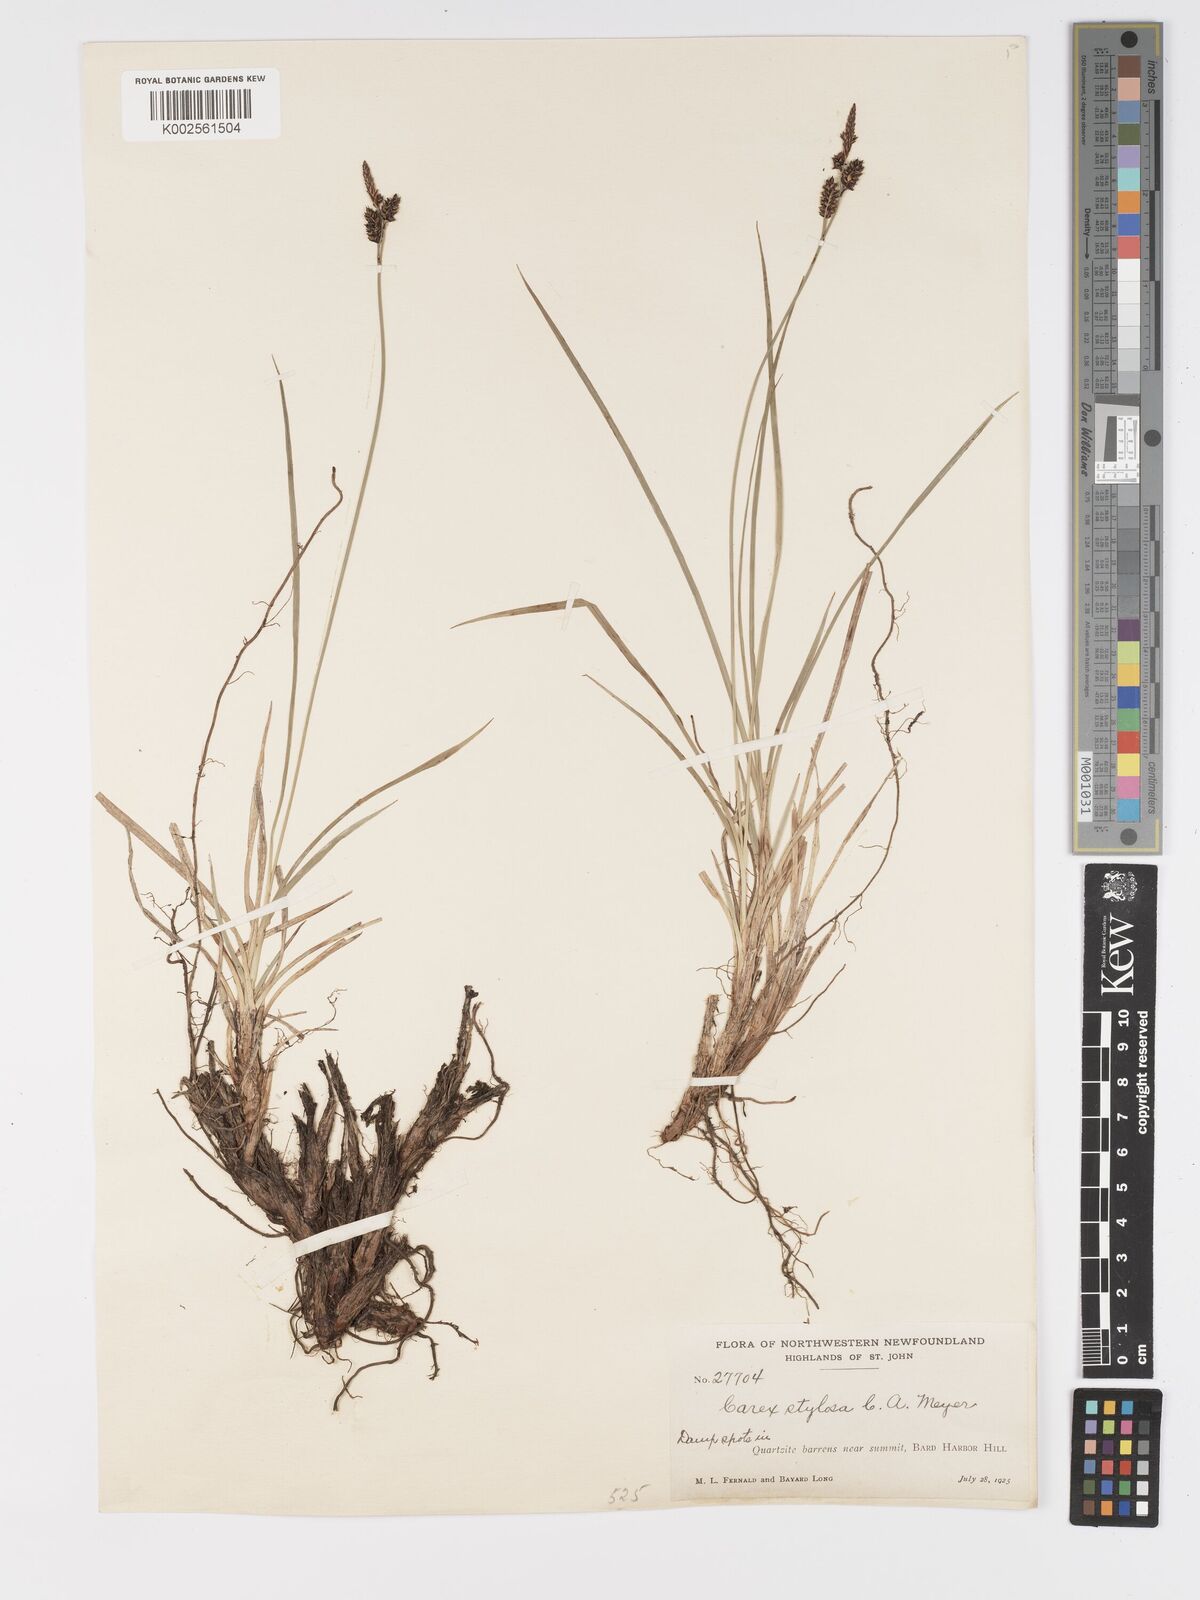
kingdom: Plantae
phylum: Tracheophyta
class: Liliopsida
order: Poales
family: Cyperaceae
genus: Carex
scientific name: Carex stylosa
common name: Long-styled sedge
